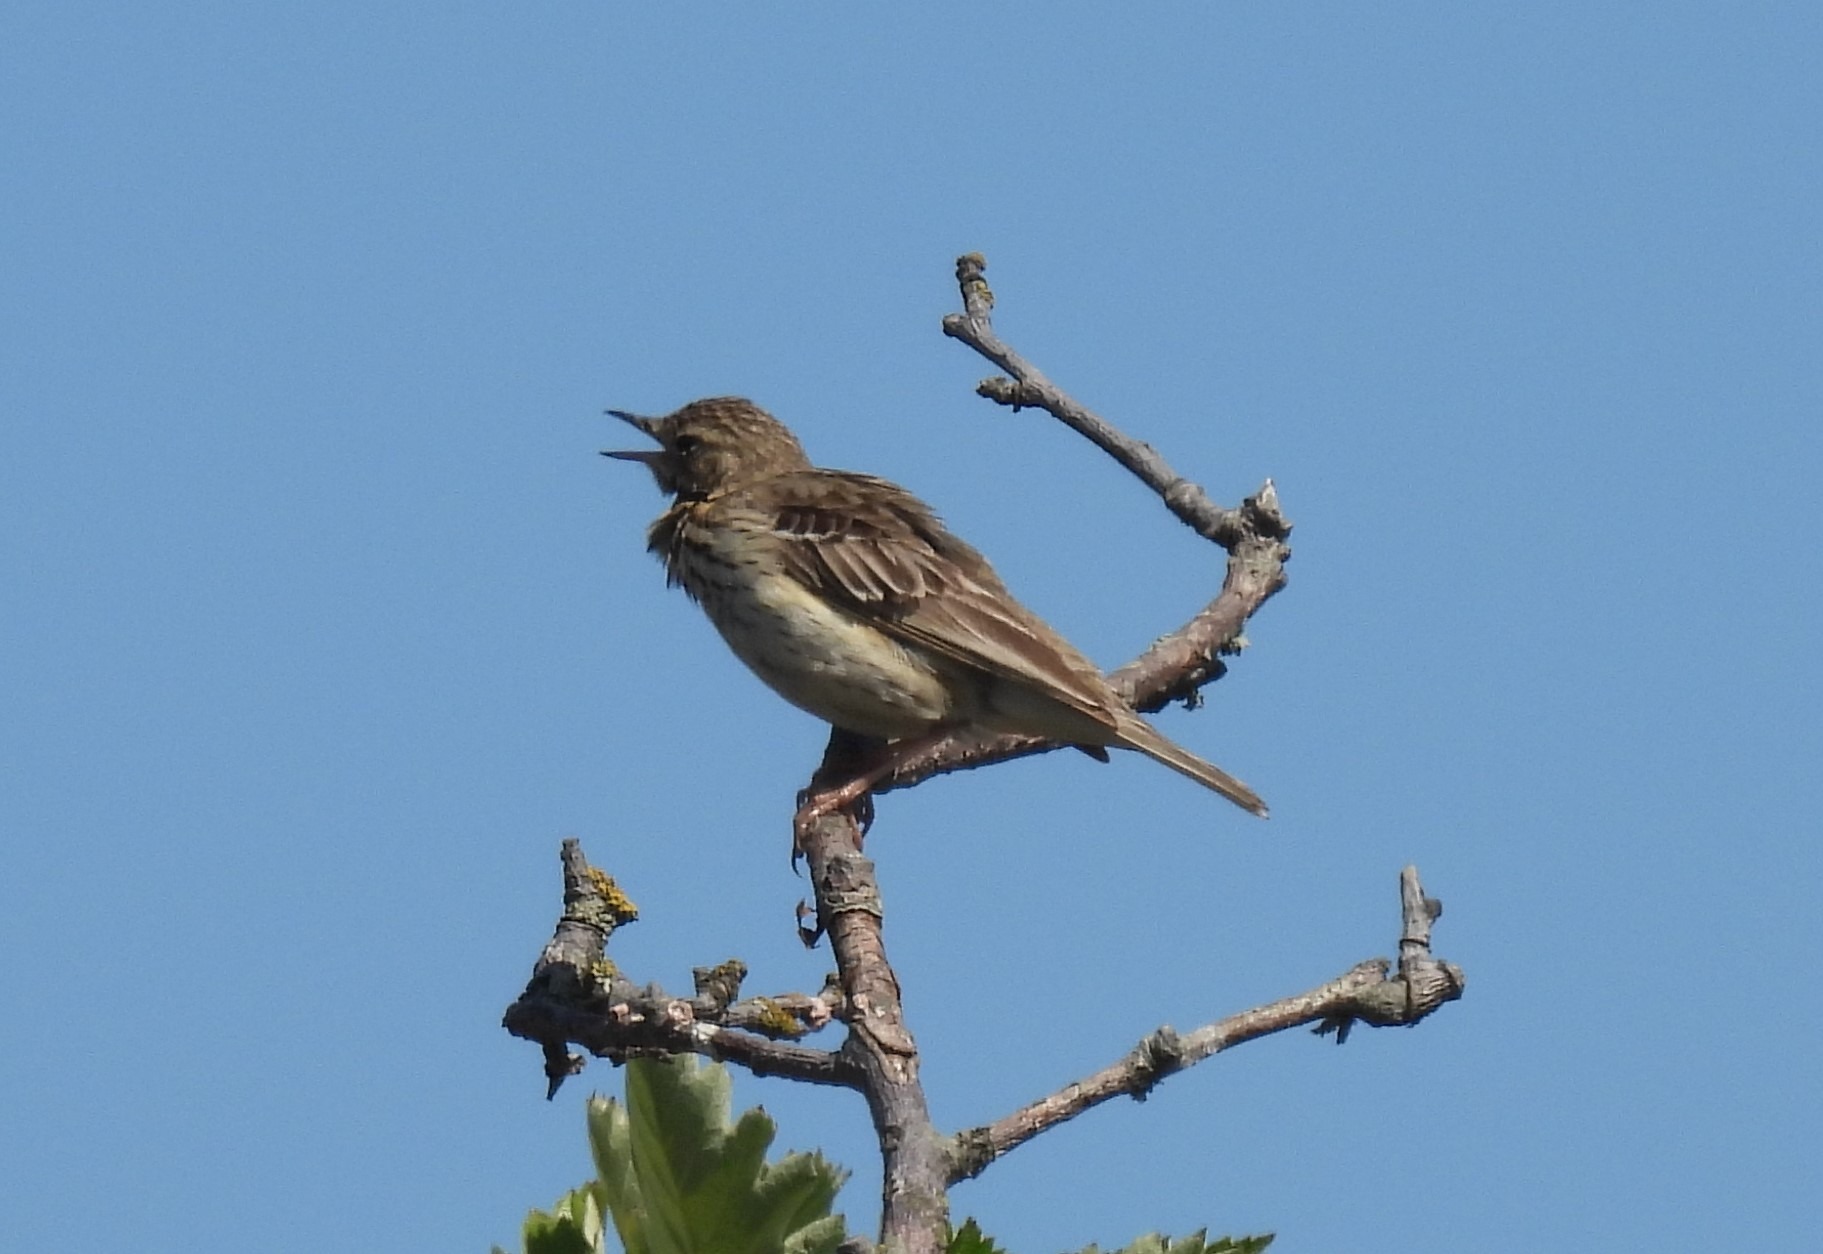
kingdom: Animalia
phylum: Chordata
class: Aves
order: Passeriformes
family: Motacillidae
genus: Anthus
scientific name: Anthus trivialis
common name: Skovpiber
